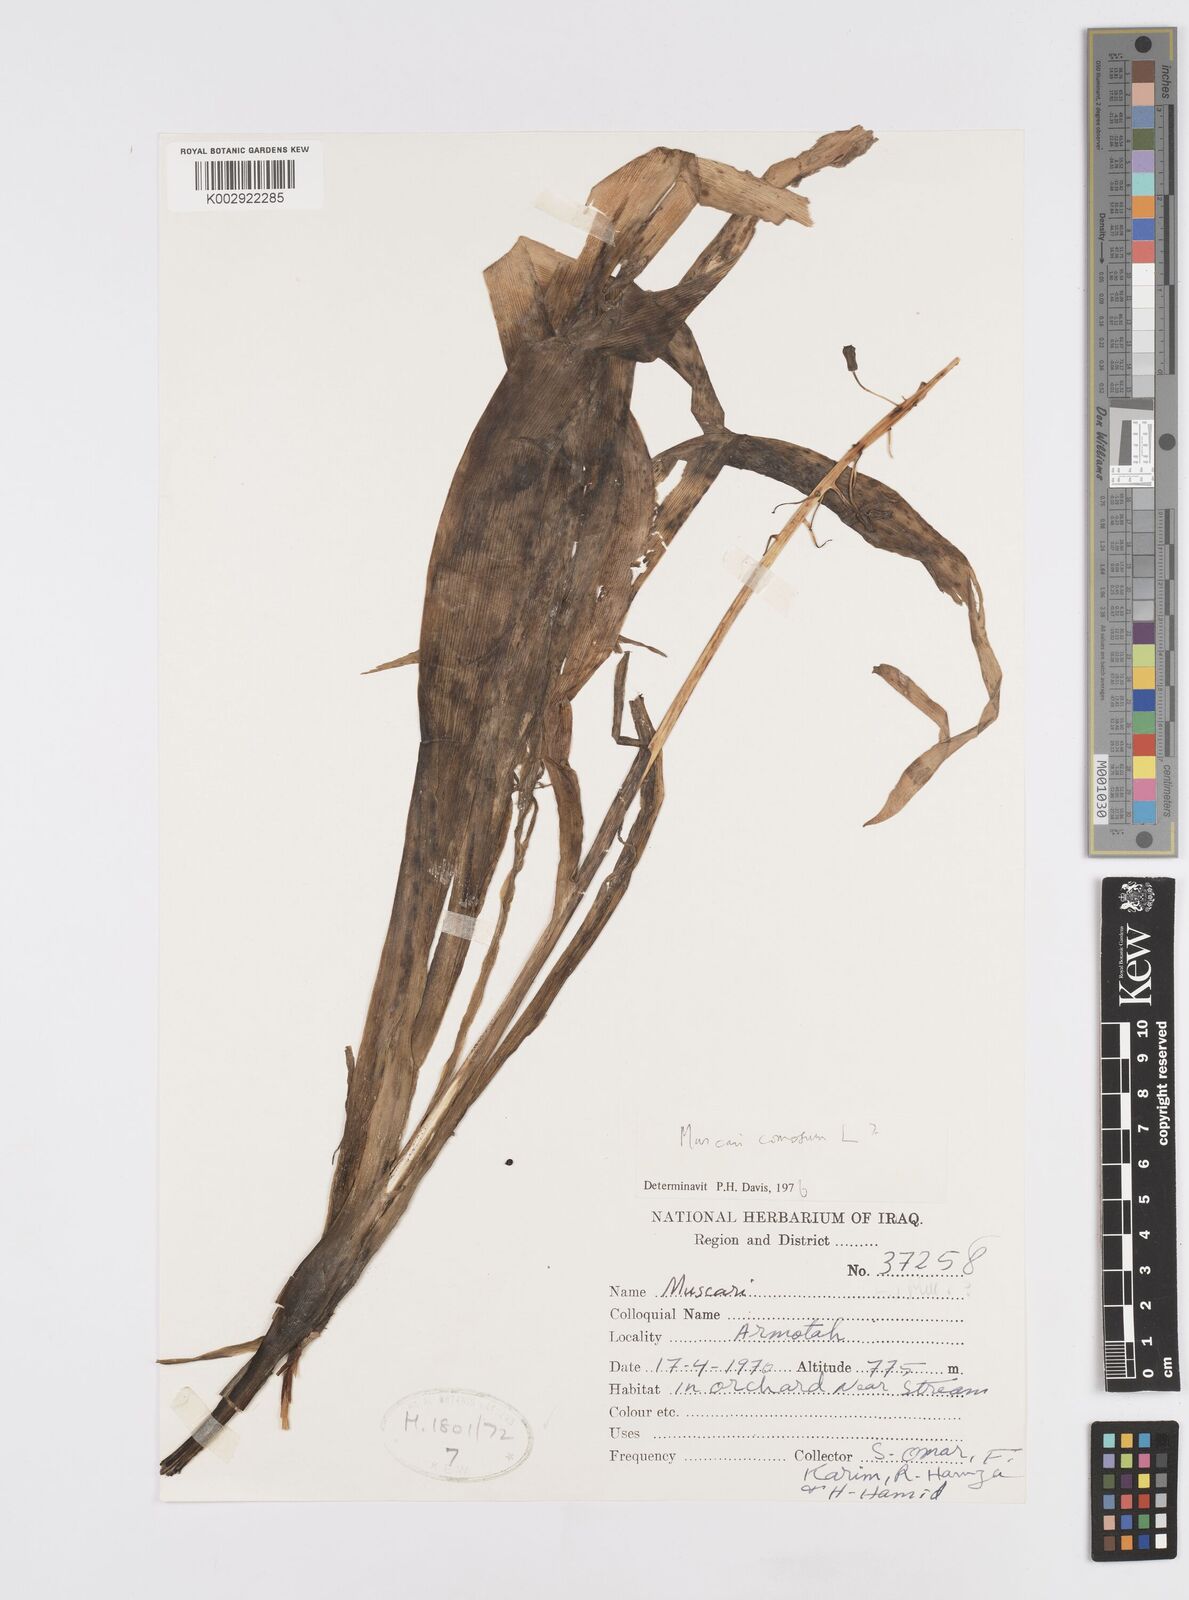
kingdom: Plantae
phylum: Tracheophyta
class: Liliopsida
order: Asparagales
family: Asparagaceae
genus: Muscari
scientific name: Muscari comosum
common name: Tassel hyacinth
